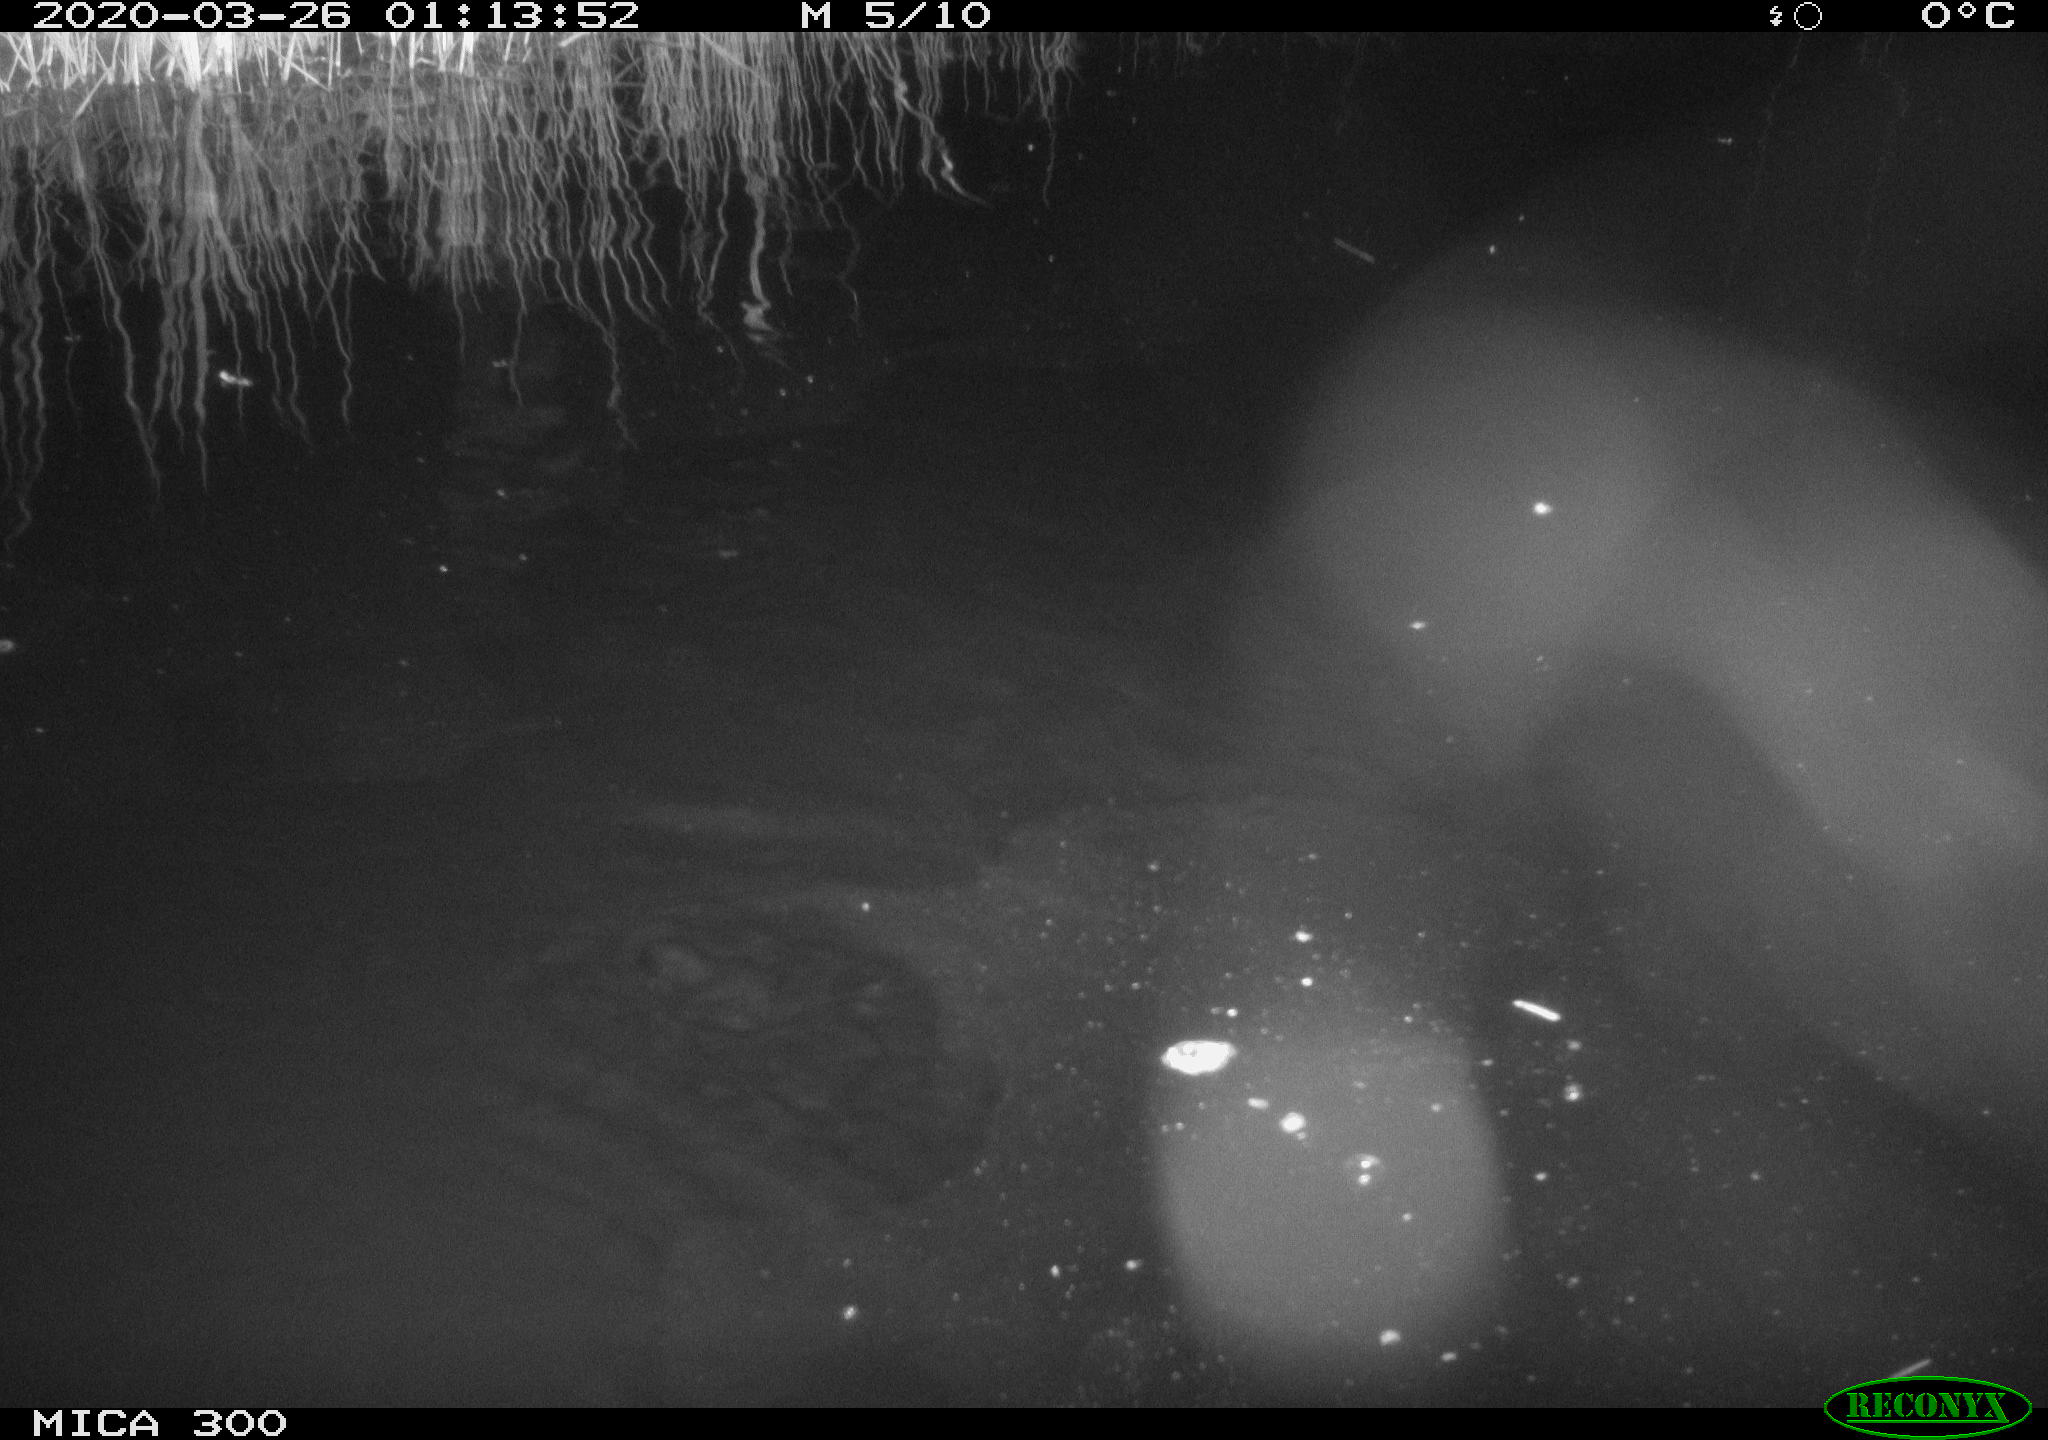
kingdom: Animalia
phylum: Chordata
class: Mammalia
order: Rodentia
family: Castoridae
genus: Castor
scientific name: Castor fiber
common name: Eurasian beaver
